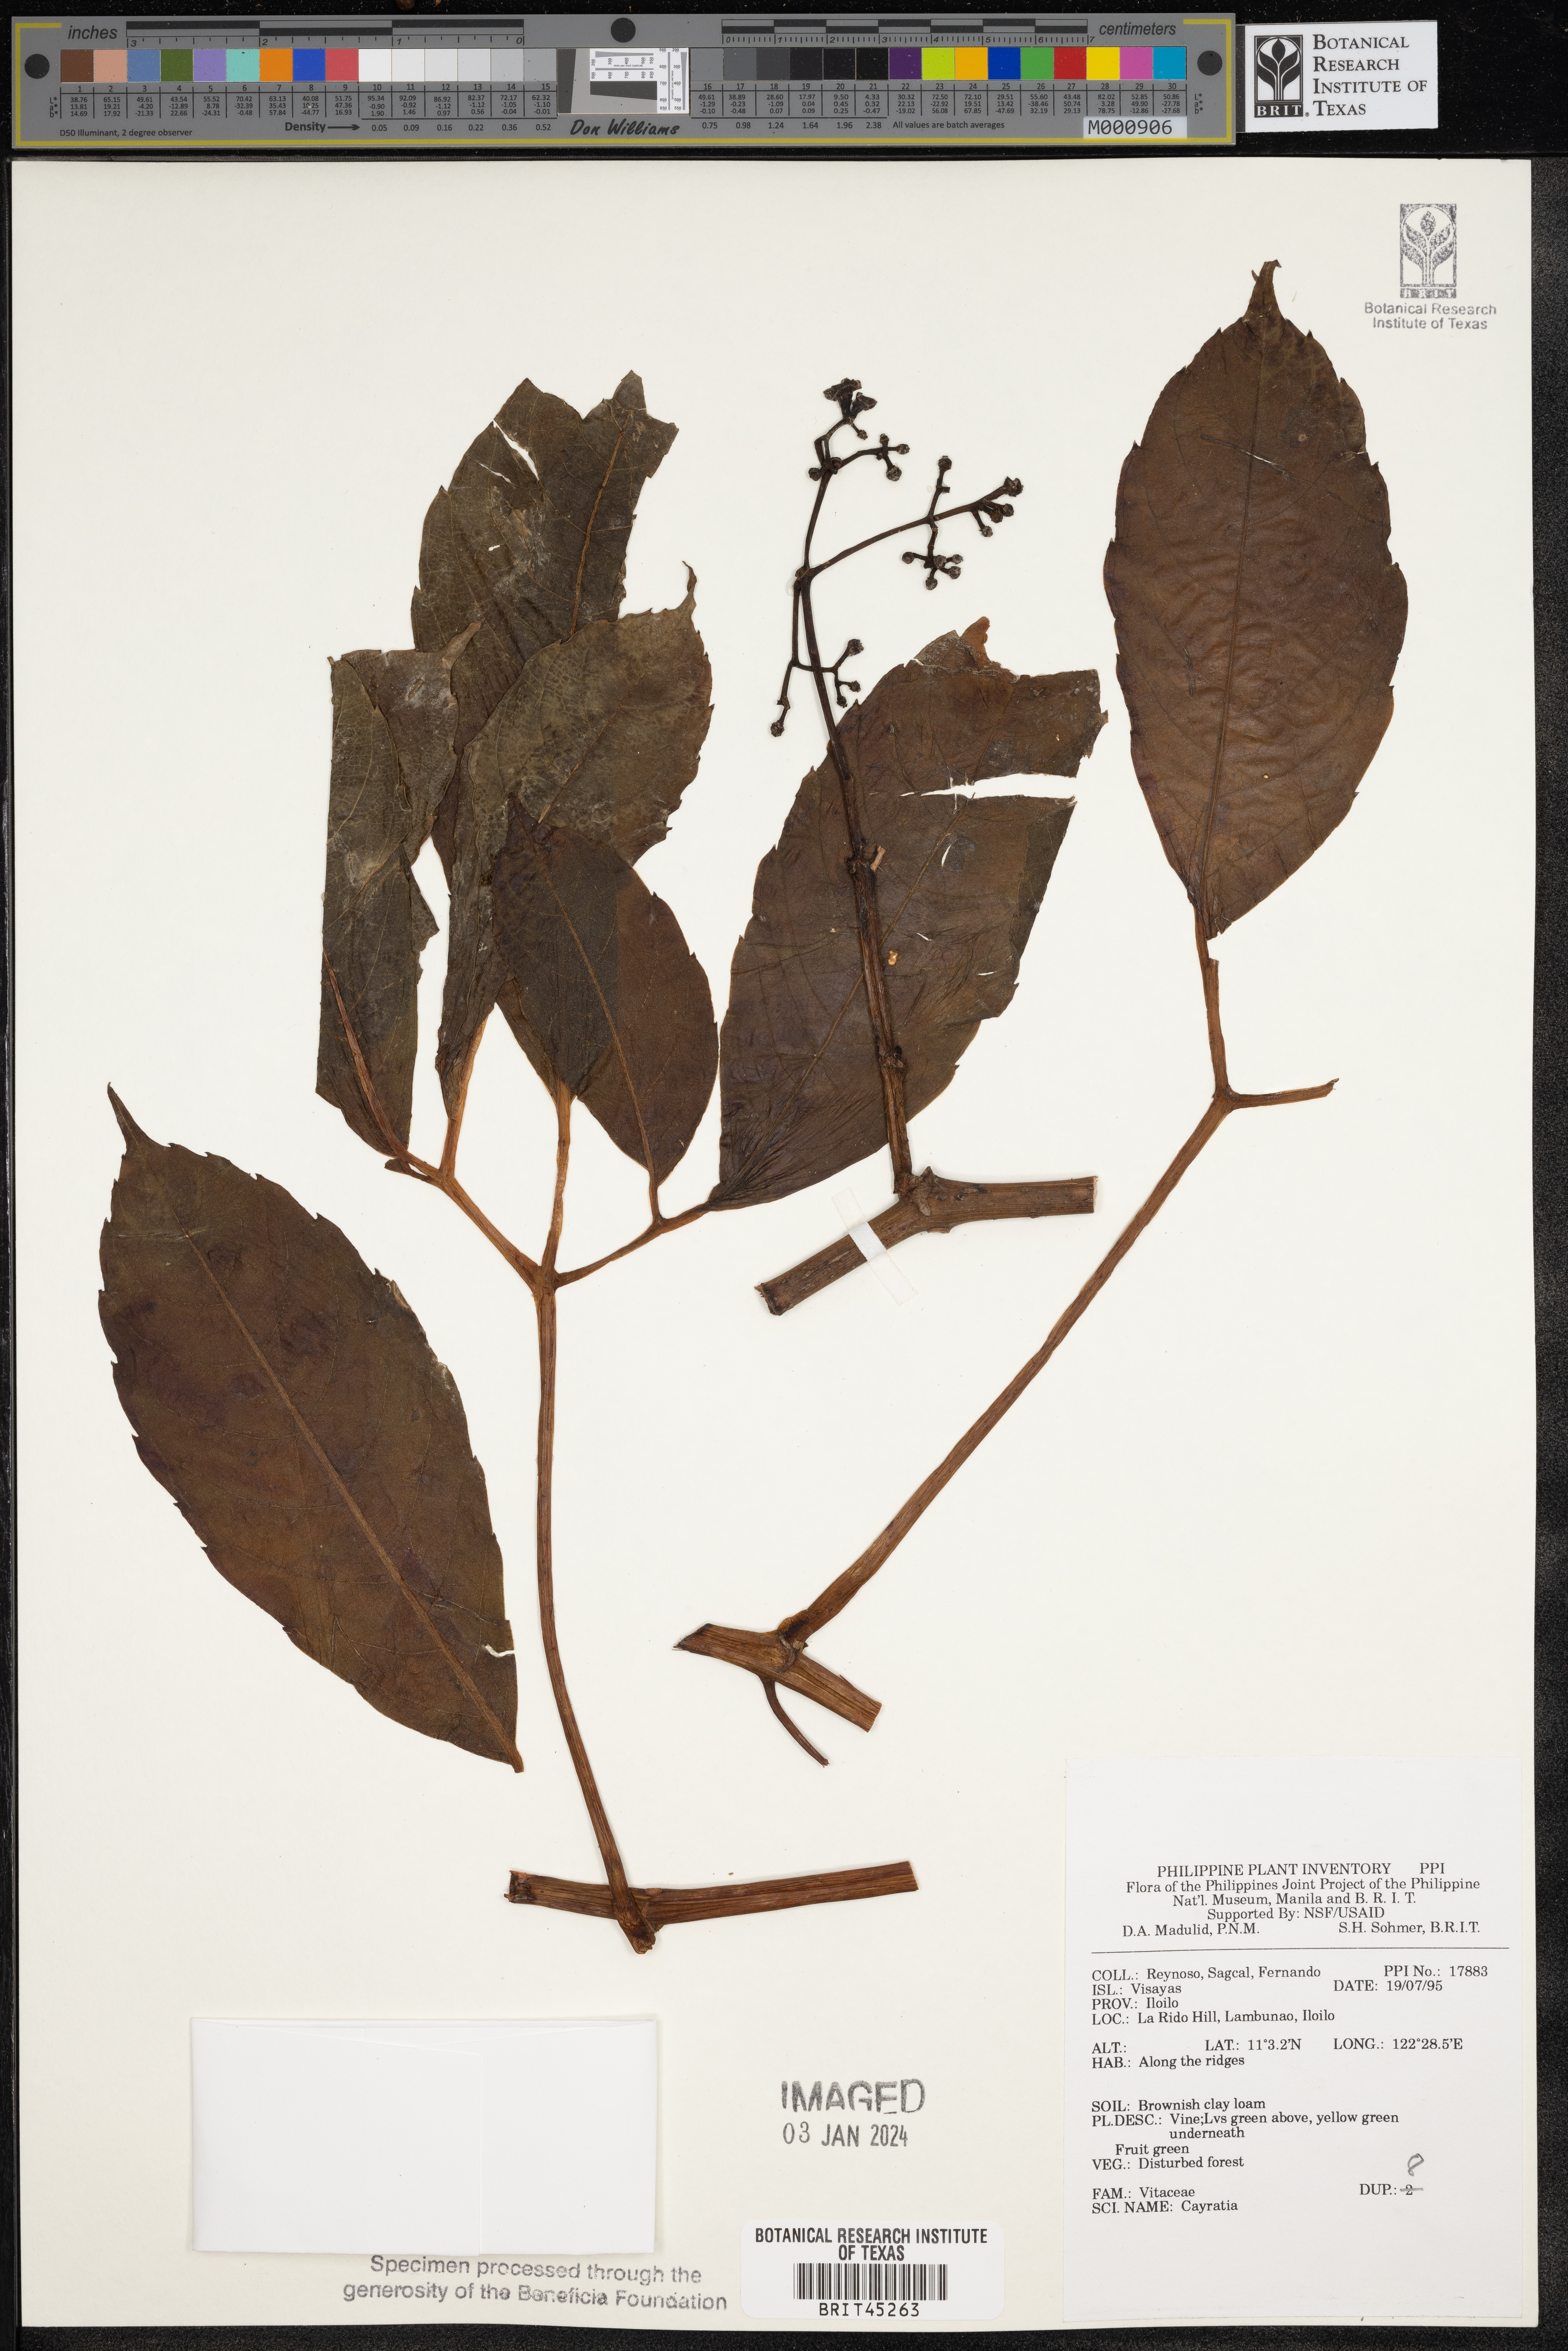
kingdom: Plantae
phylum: Tracheophyta
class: Magnoliopsida
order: Vitales
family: Vitaceae
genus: Cayratia
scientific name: Cayratia
